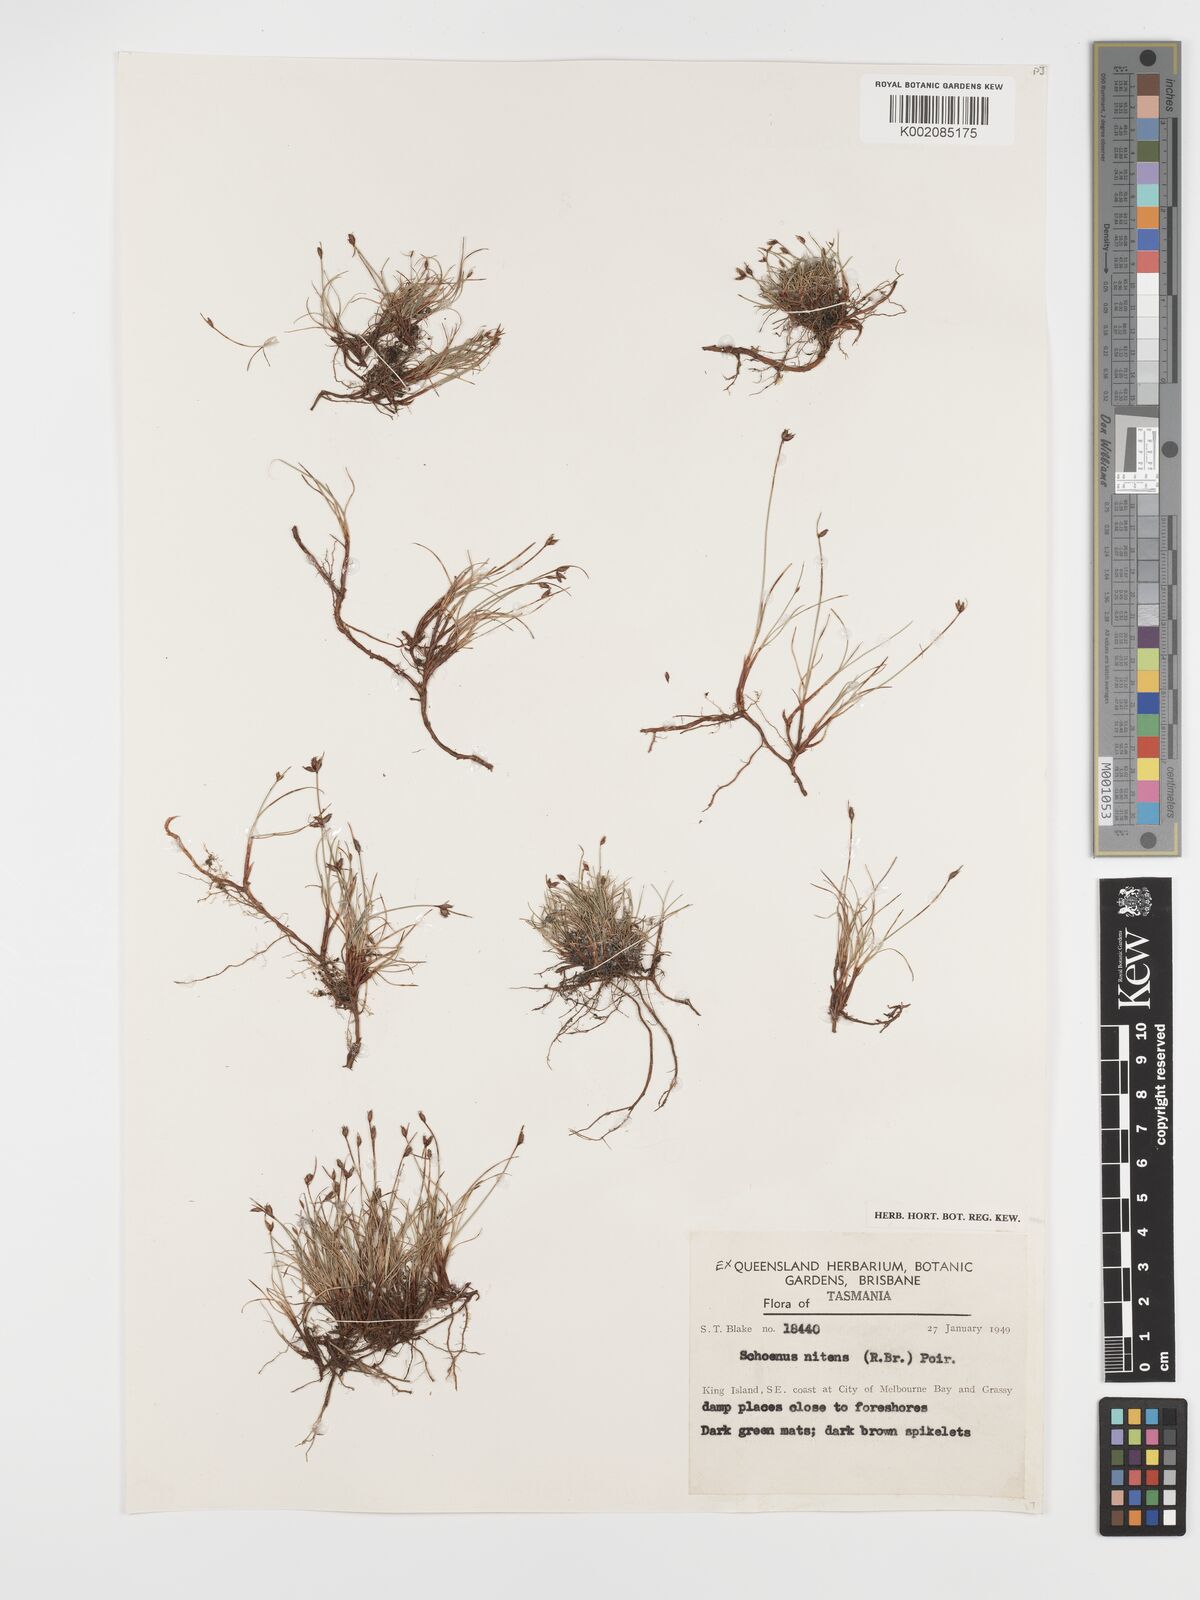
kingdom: Plantae
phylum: Tracheophyta
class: Liliopsida
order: Poales
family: Cyperaceae
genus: Schoenus
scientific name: Schoenus nitens
